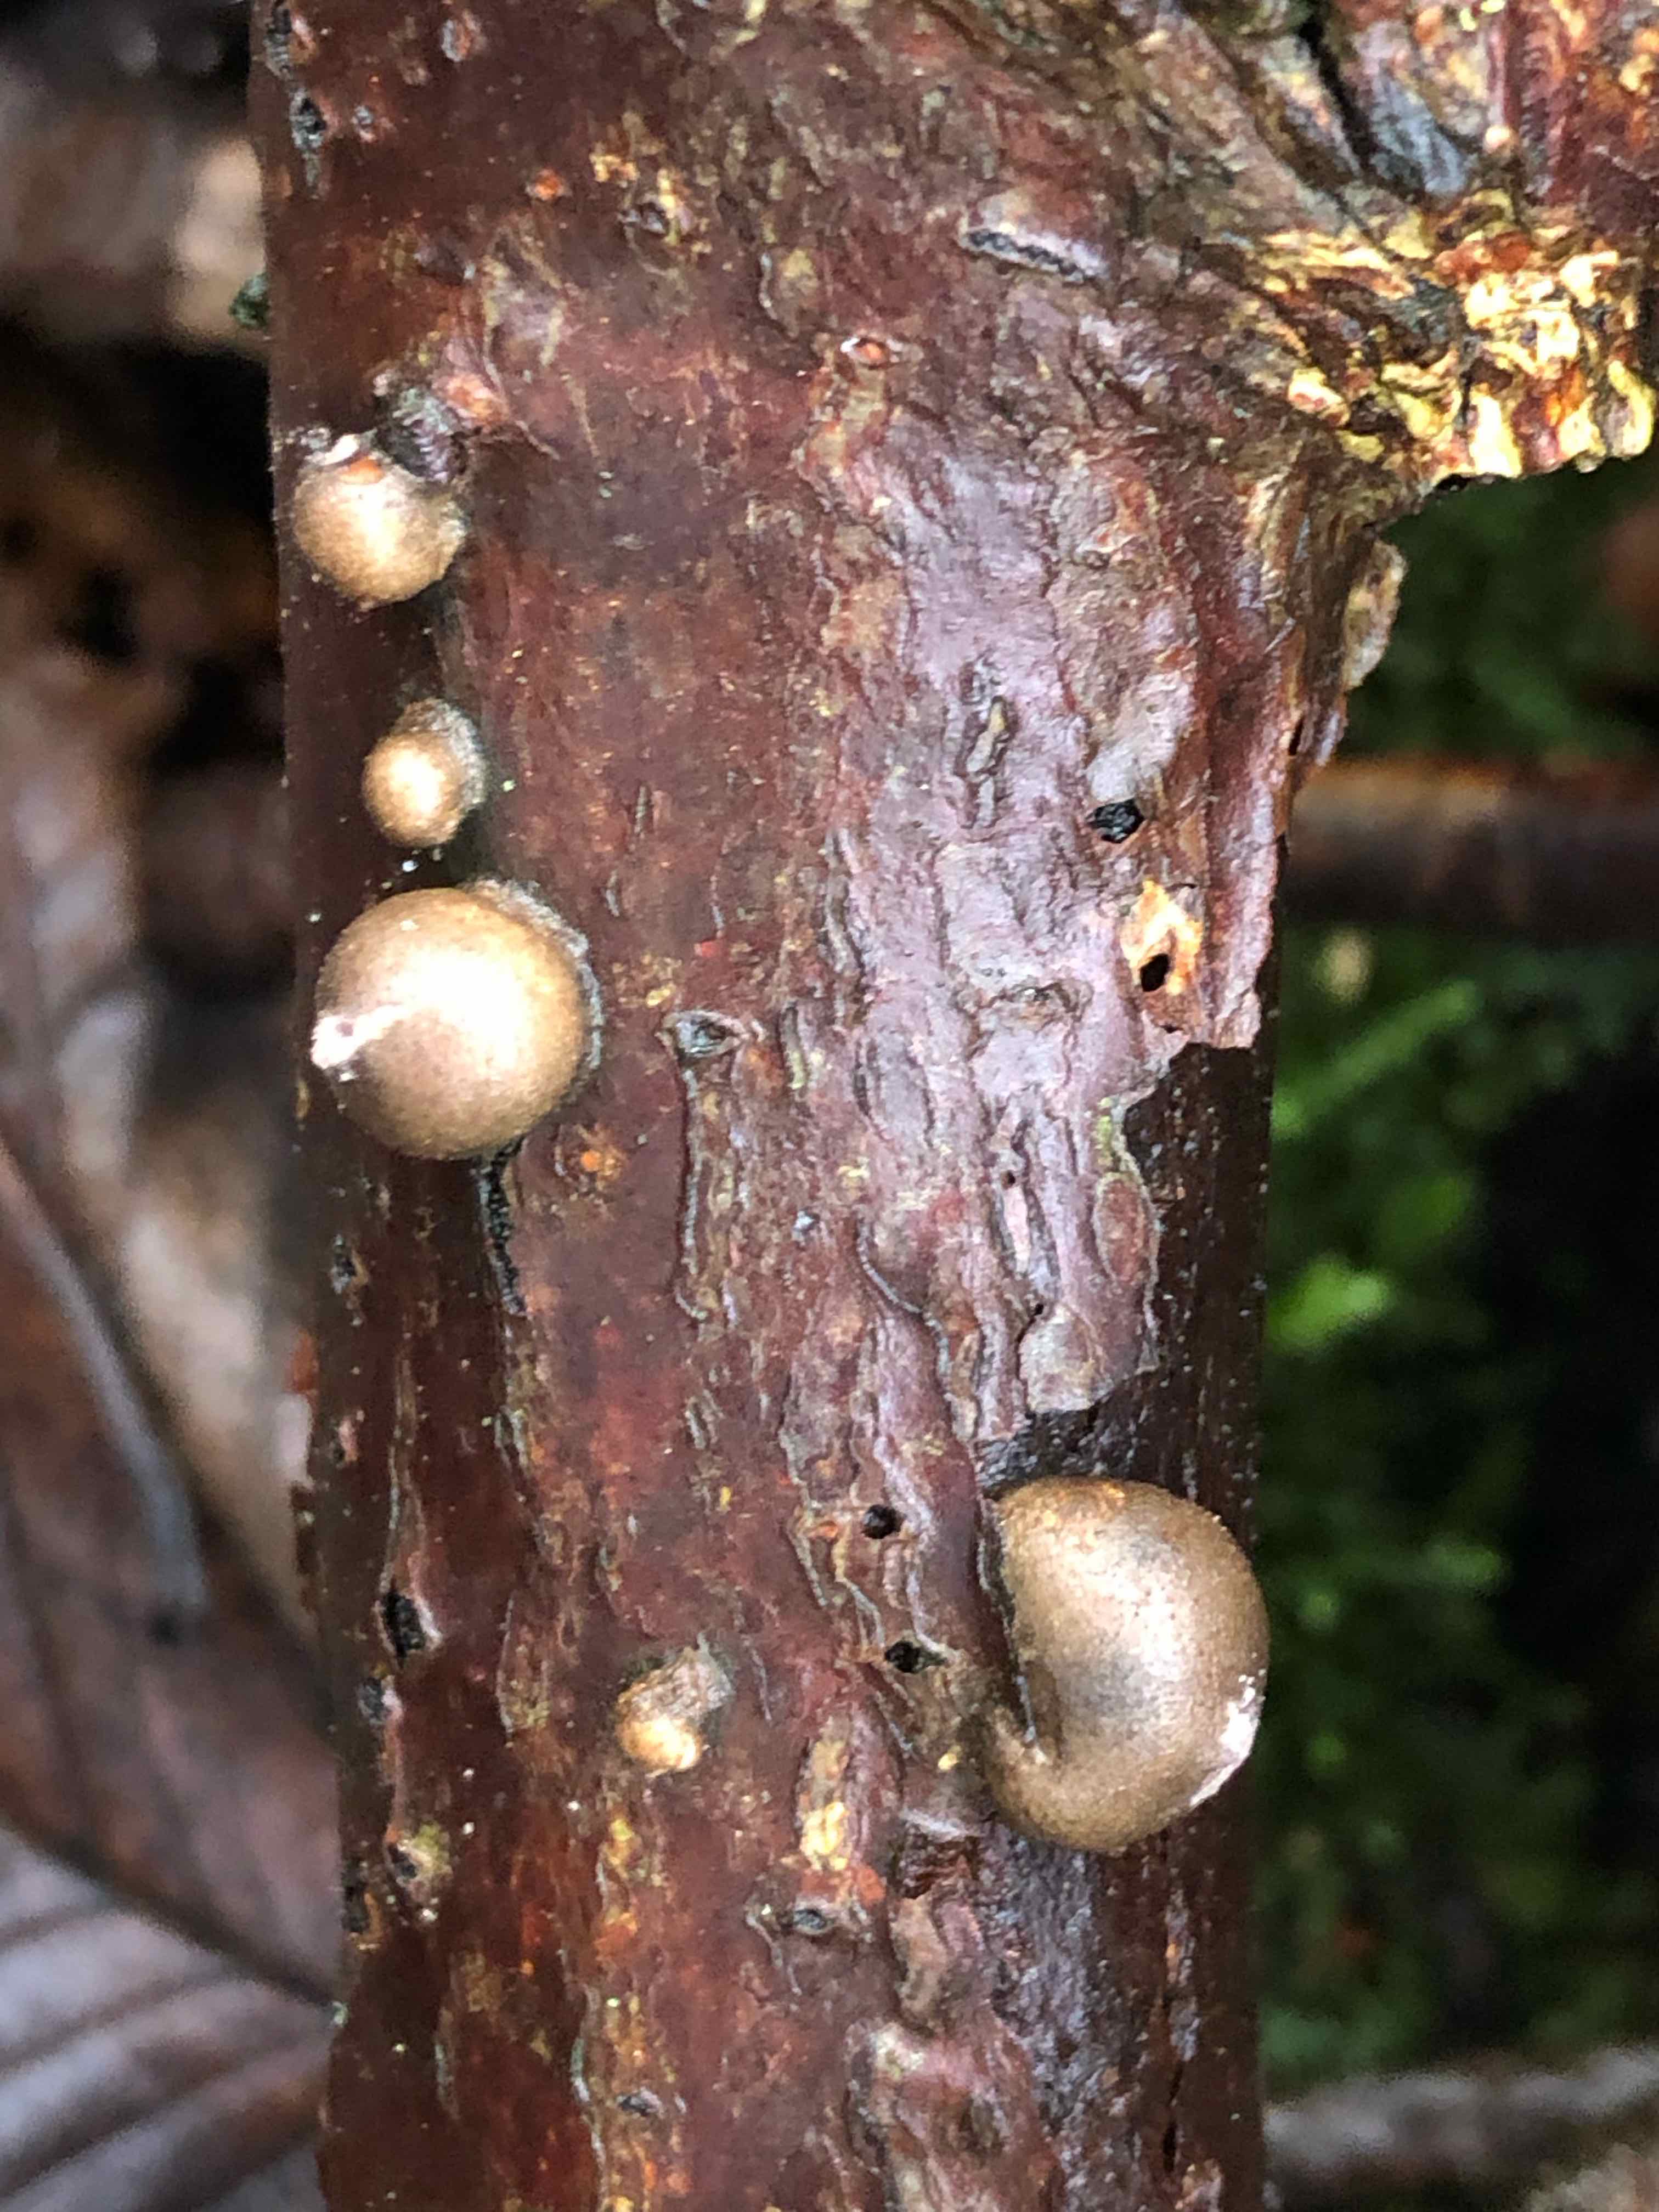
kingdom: Protozoa
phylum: Mycetozoa
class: Myxomycetes
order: Cribrariales
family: Tubiferaceae
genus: Lycogala
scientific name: Lycogala epidendrum
